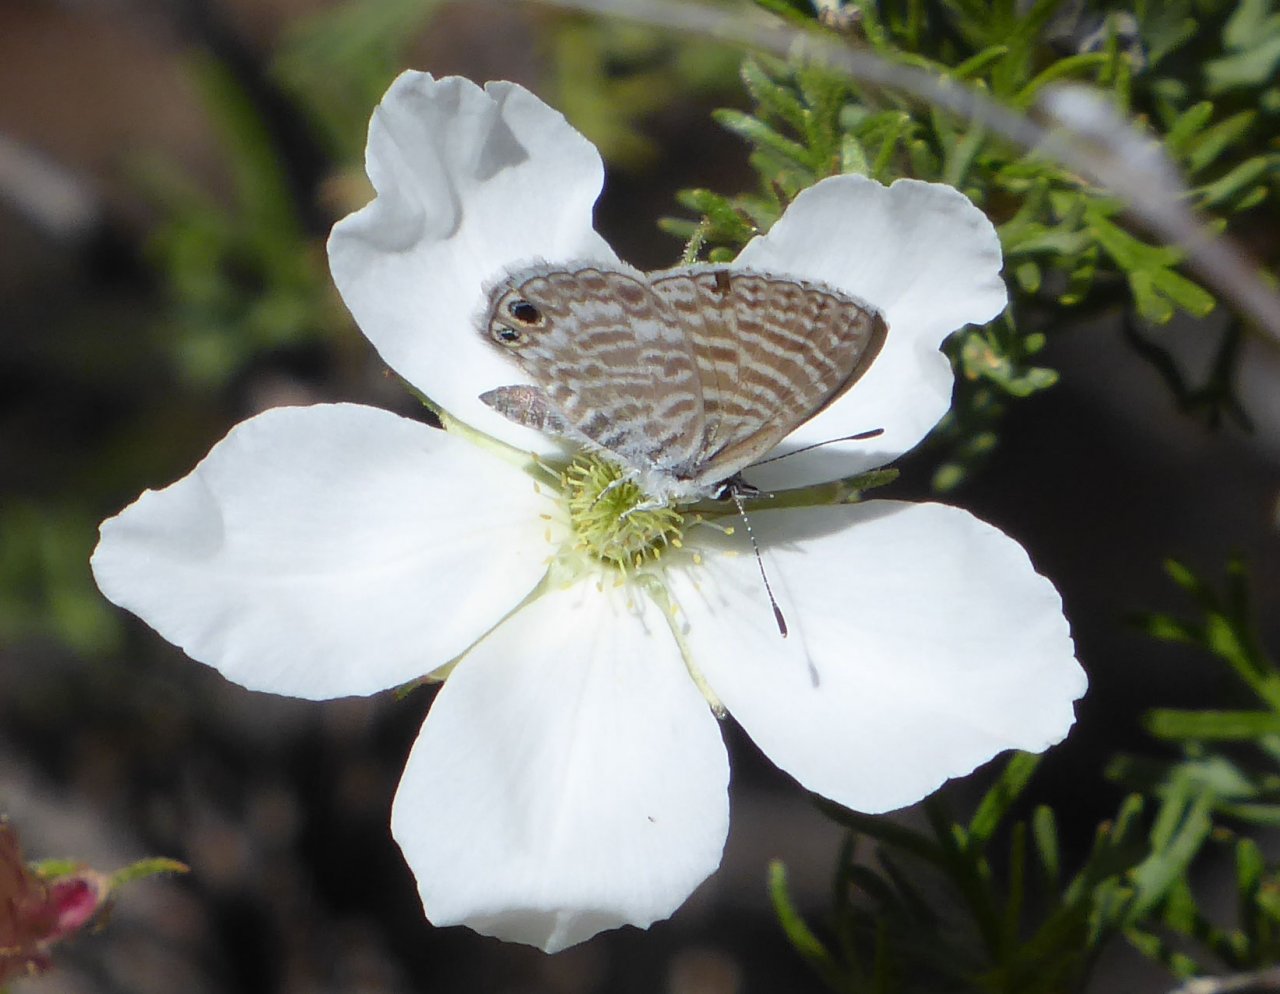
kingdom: Animalia
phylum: Arthropoda
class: Insecta
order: Lepidoptera
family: Lycaenidae
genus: Leptotes
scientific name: Leptotes marina
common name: Marine Blue
